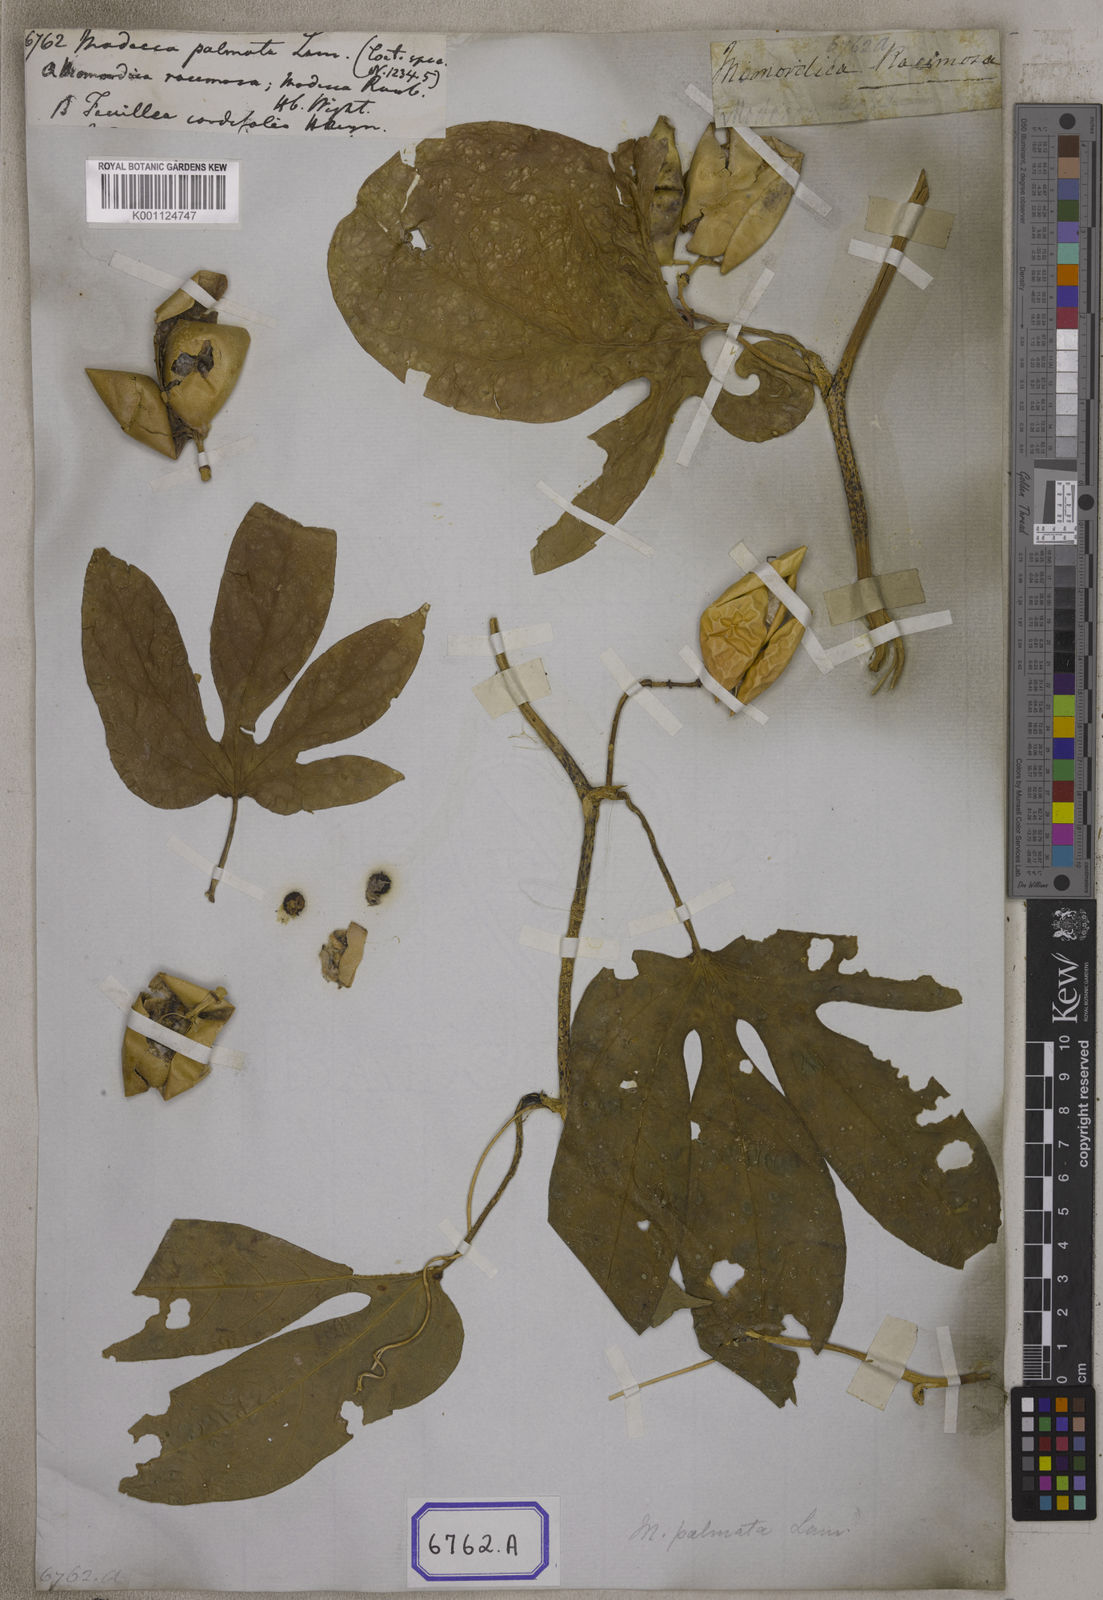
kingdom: Plantae
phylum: Tracheophyta
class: Magnoliopsida
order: Malpighiales
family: Passifloraceae
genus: Adenia
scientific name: Adenia hondala
